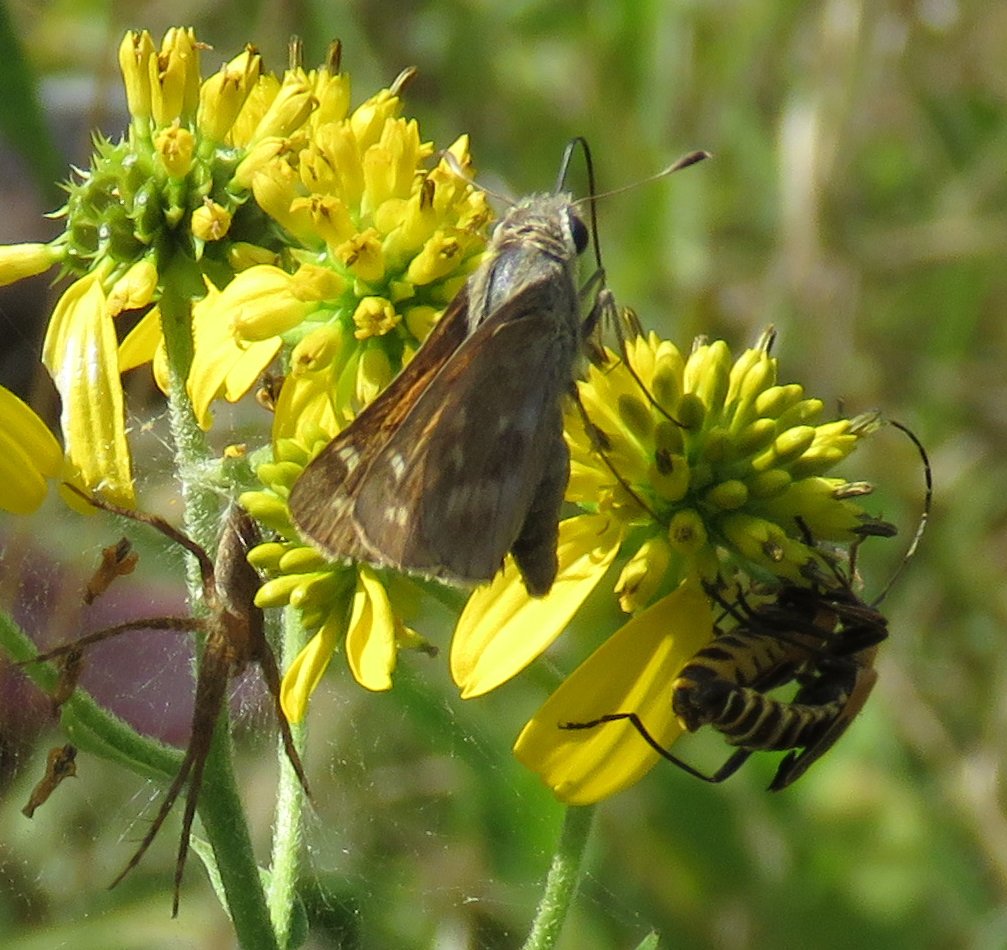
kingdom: Animalia
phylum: Arthropoda
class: Insecta
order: Lepidoptera
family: Hesperiidae
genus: Atalopedes
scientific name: Atalopedes campestris
